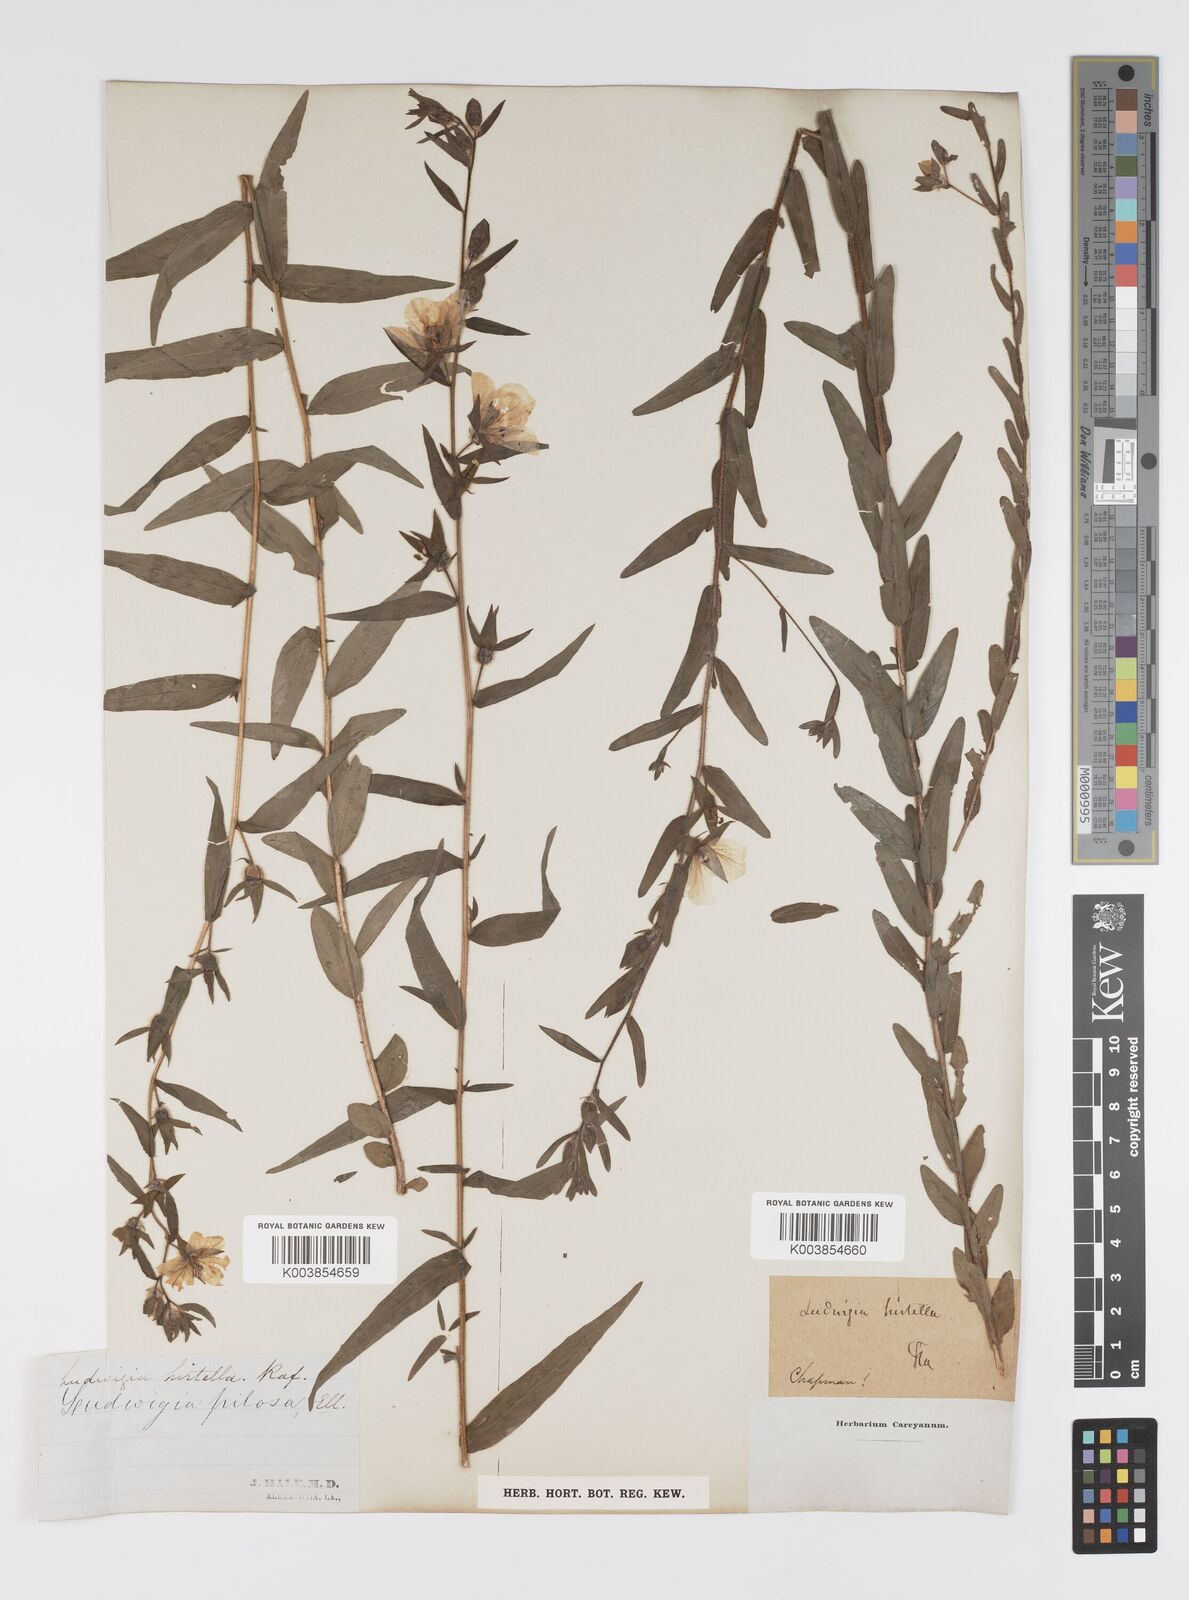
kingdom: Plantae
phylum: Tracheophyta
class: Magnoliopsida
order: Myrtales
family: Onagraceae
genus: Ludwigia
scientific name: Ludwigia hirtella
